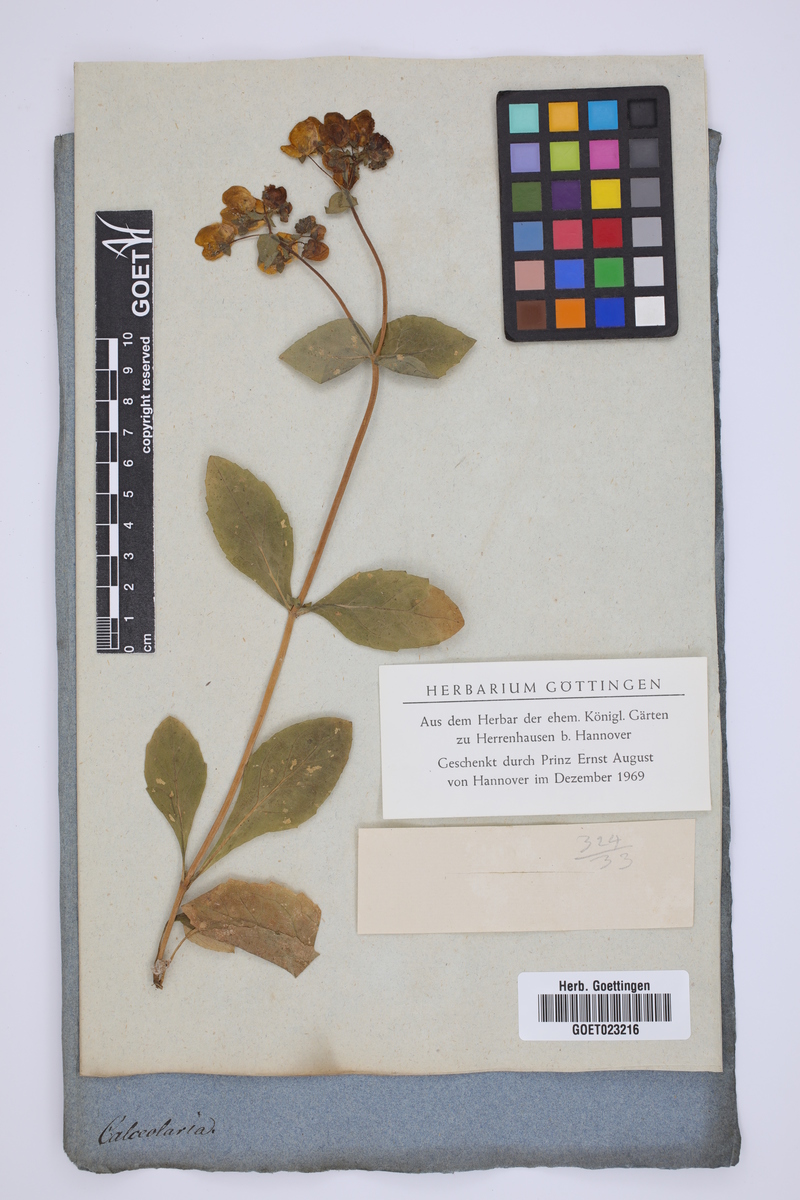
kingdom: Plantae
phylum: Tracheophyta
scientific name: Tracheophyta
